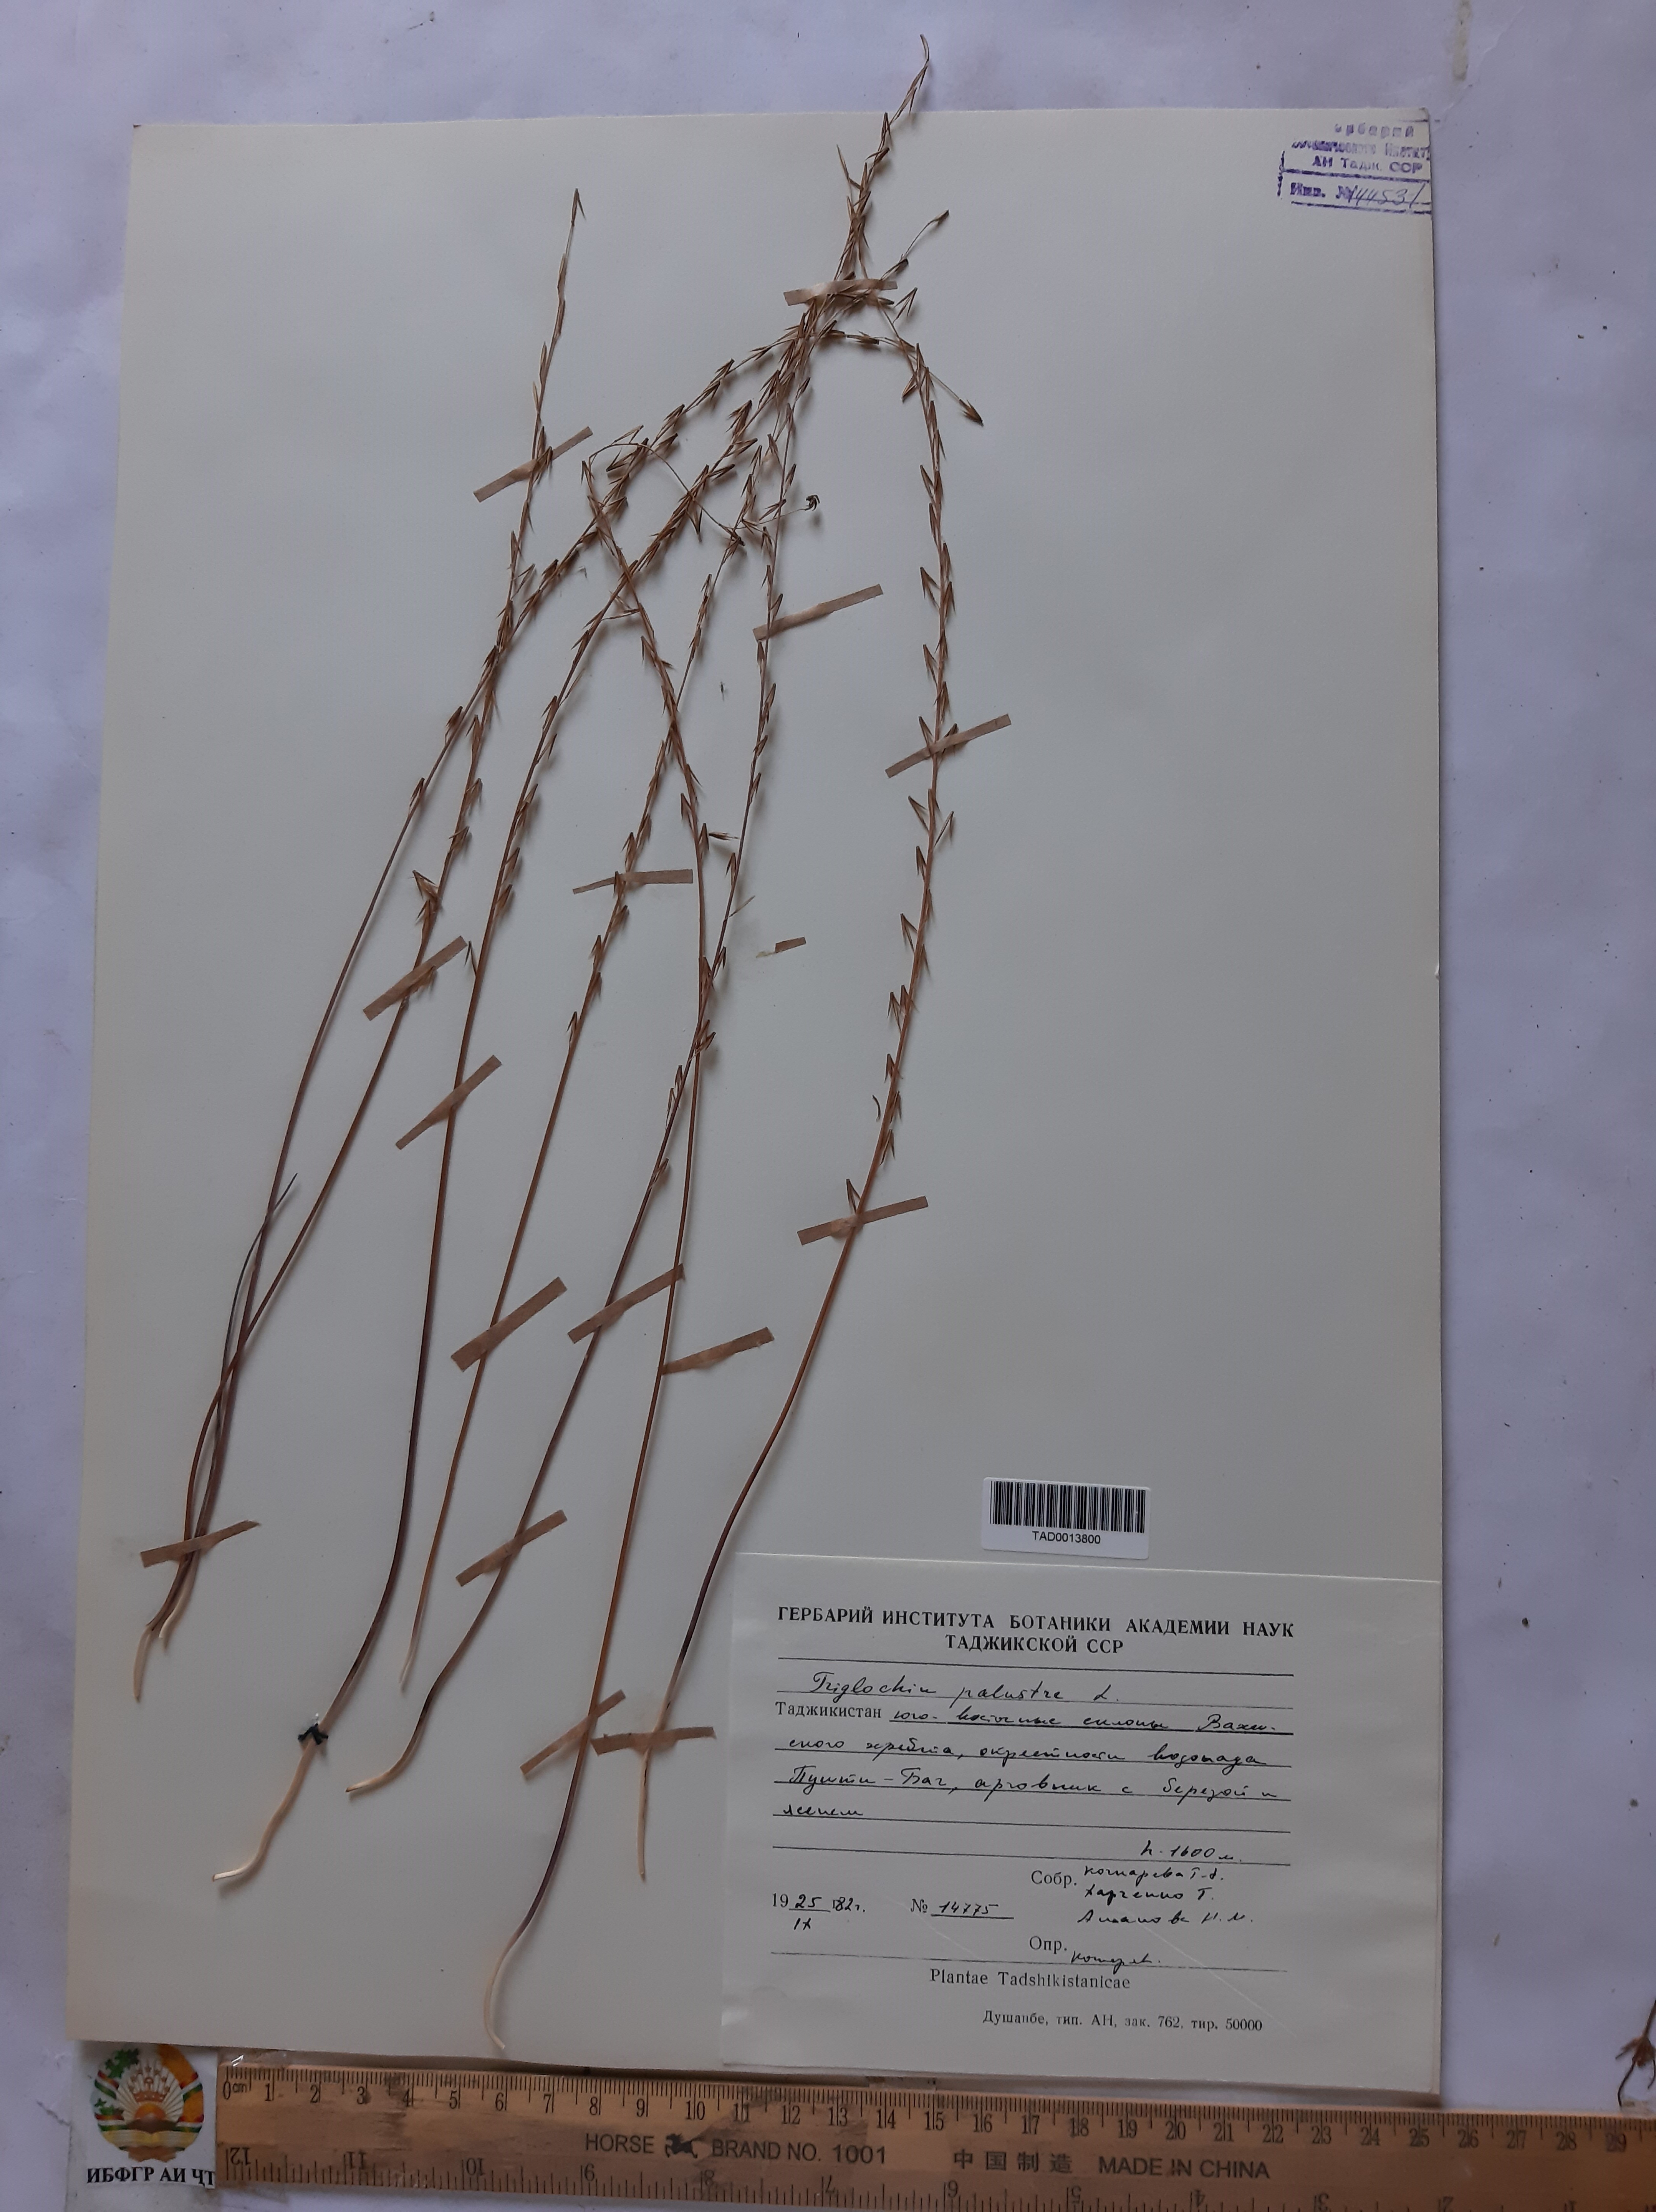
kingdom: Plantae
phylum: Tracheophyta
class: Liliopsida
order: Alismatales
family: Juncaginaceae
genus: Triglochin
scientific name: Triglochin palustris
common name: Marsh arrowgrass
